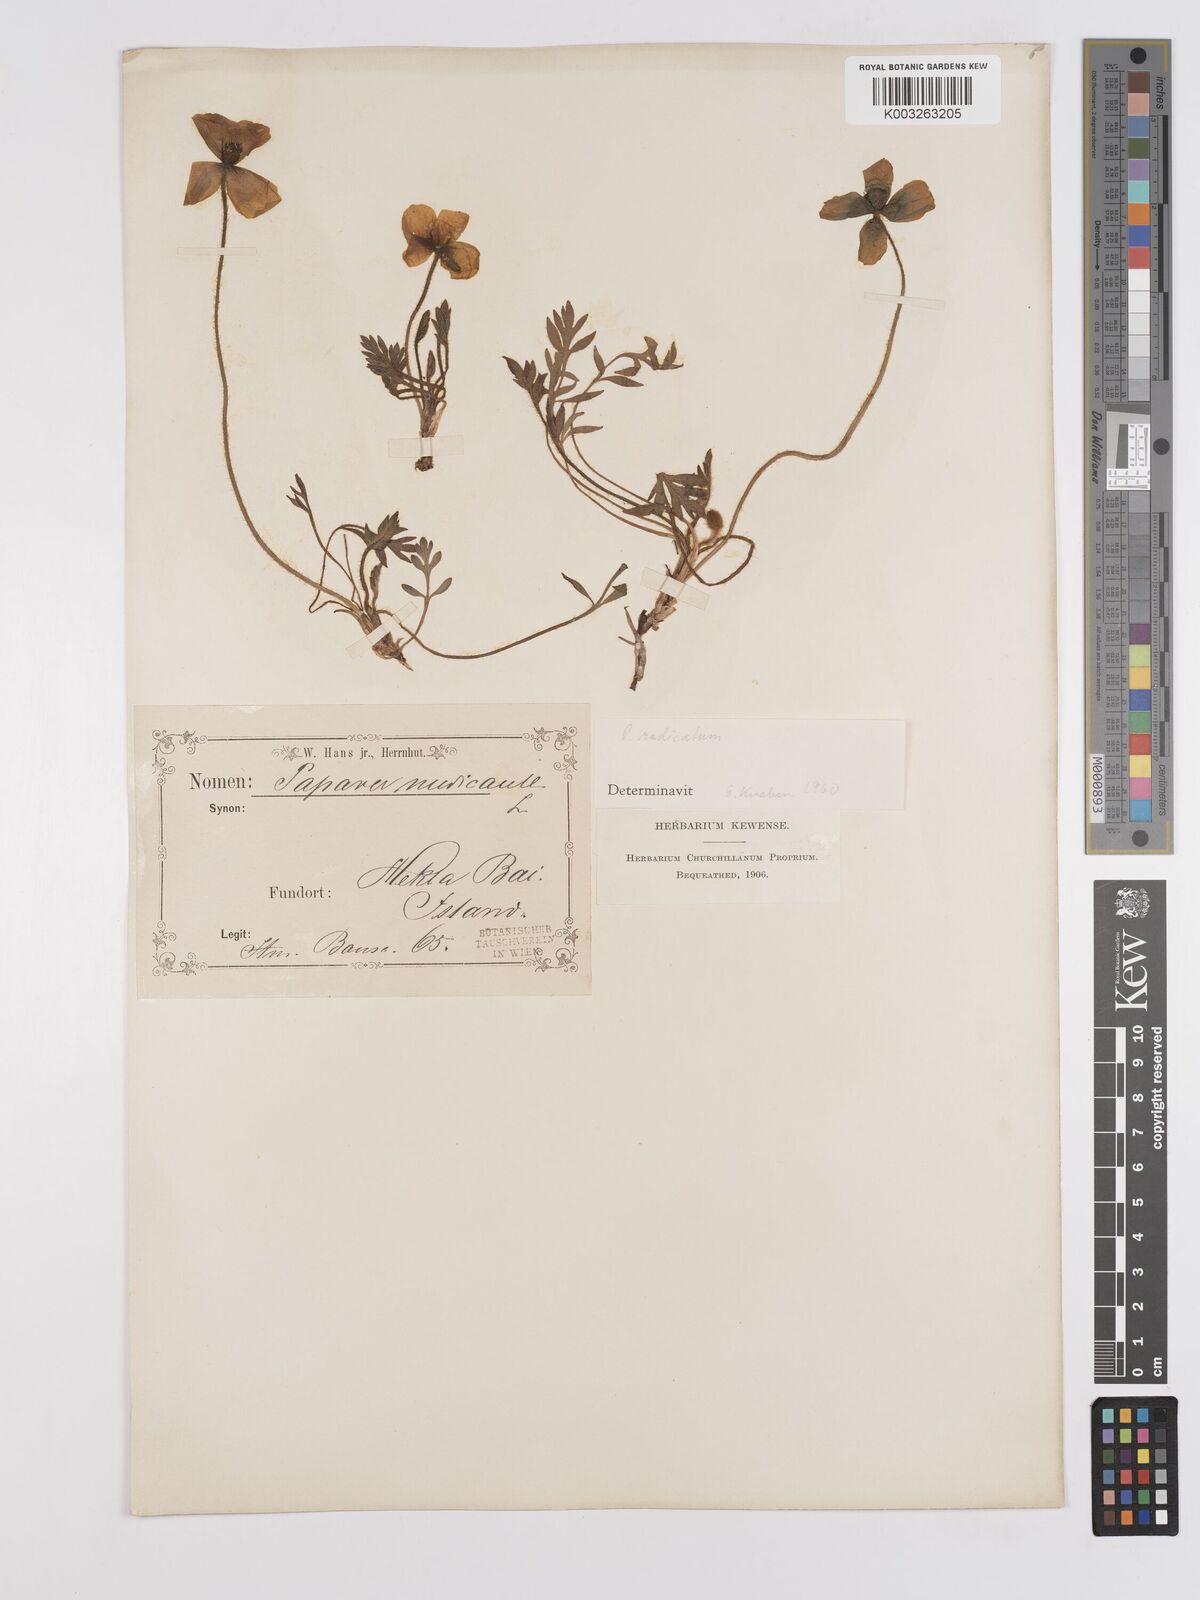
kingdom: Plantae
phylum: Tracheophyta
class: Magnoliopsida
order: Ranunculales
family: Papaveraceae
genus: Papaver
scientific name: Papaver radicatum
